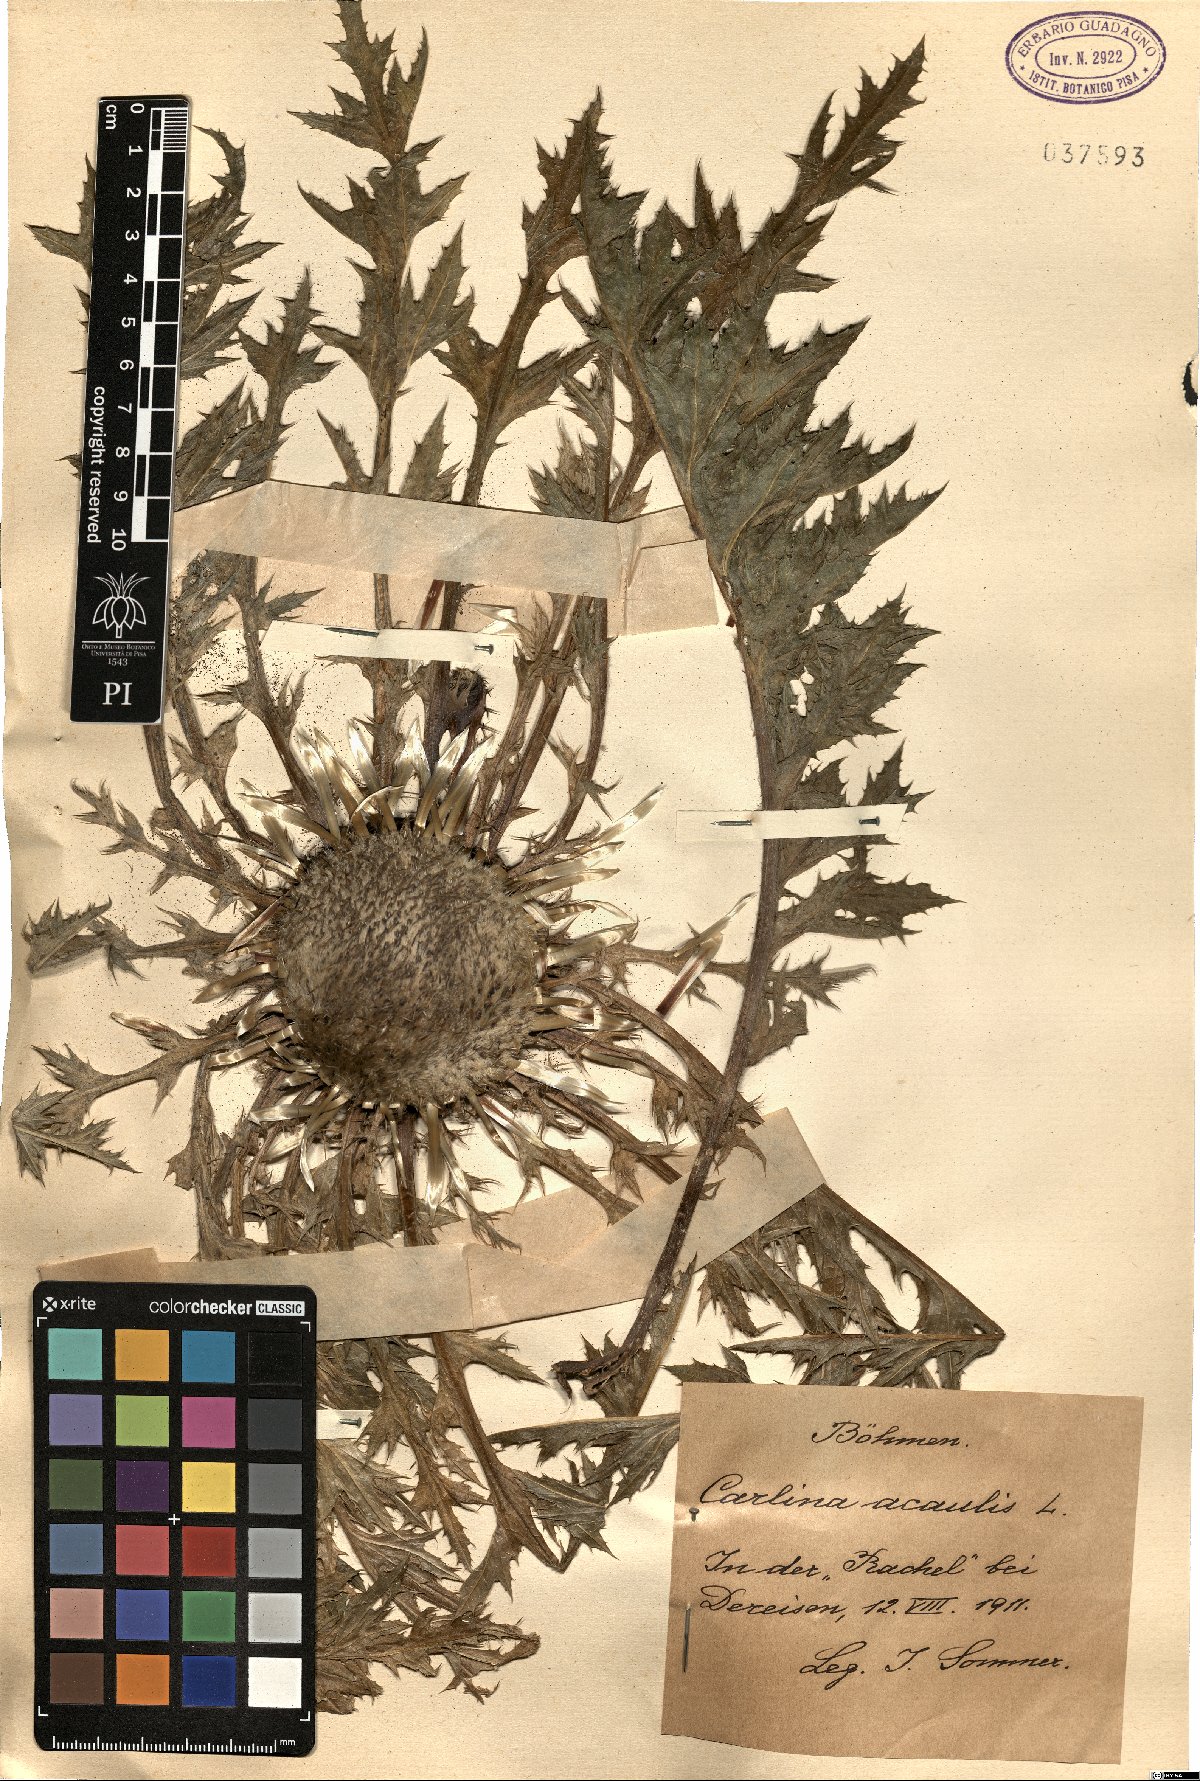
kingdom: Plantae
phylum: Tracheophyta
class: Magnoliopsida
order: Asterales
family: Asteraceae
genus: Carlina
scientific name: Carlina acaulis
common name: Stemless carline thistle
